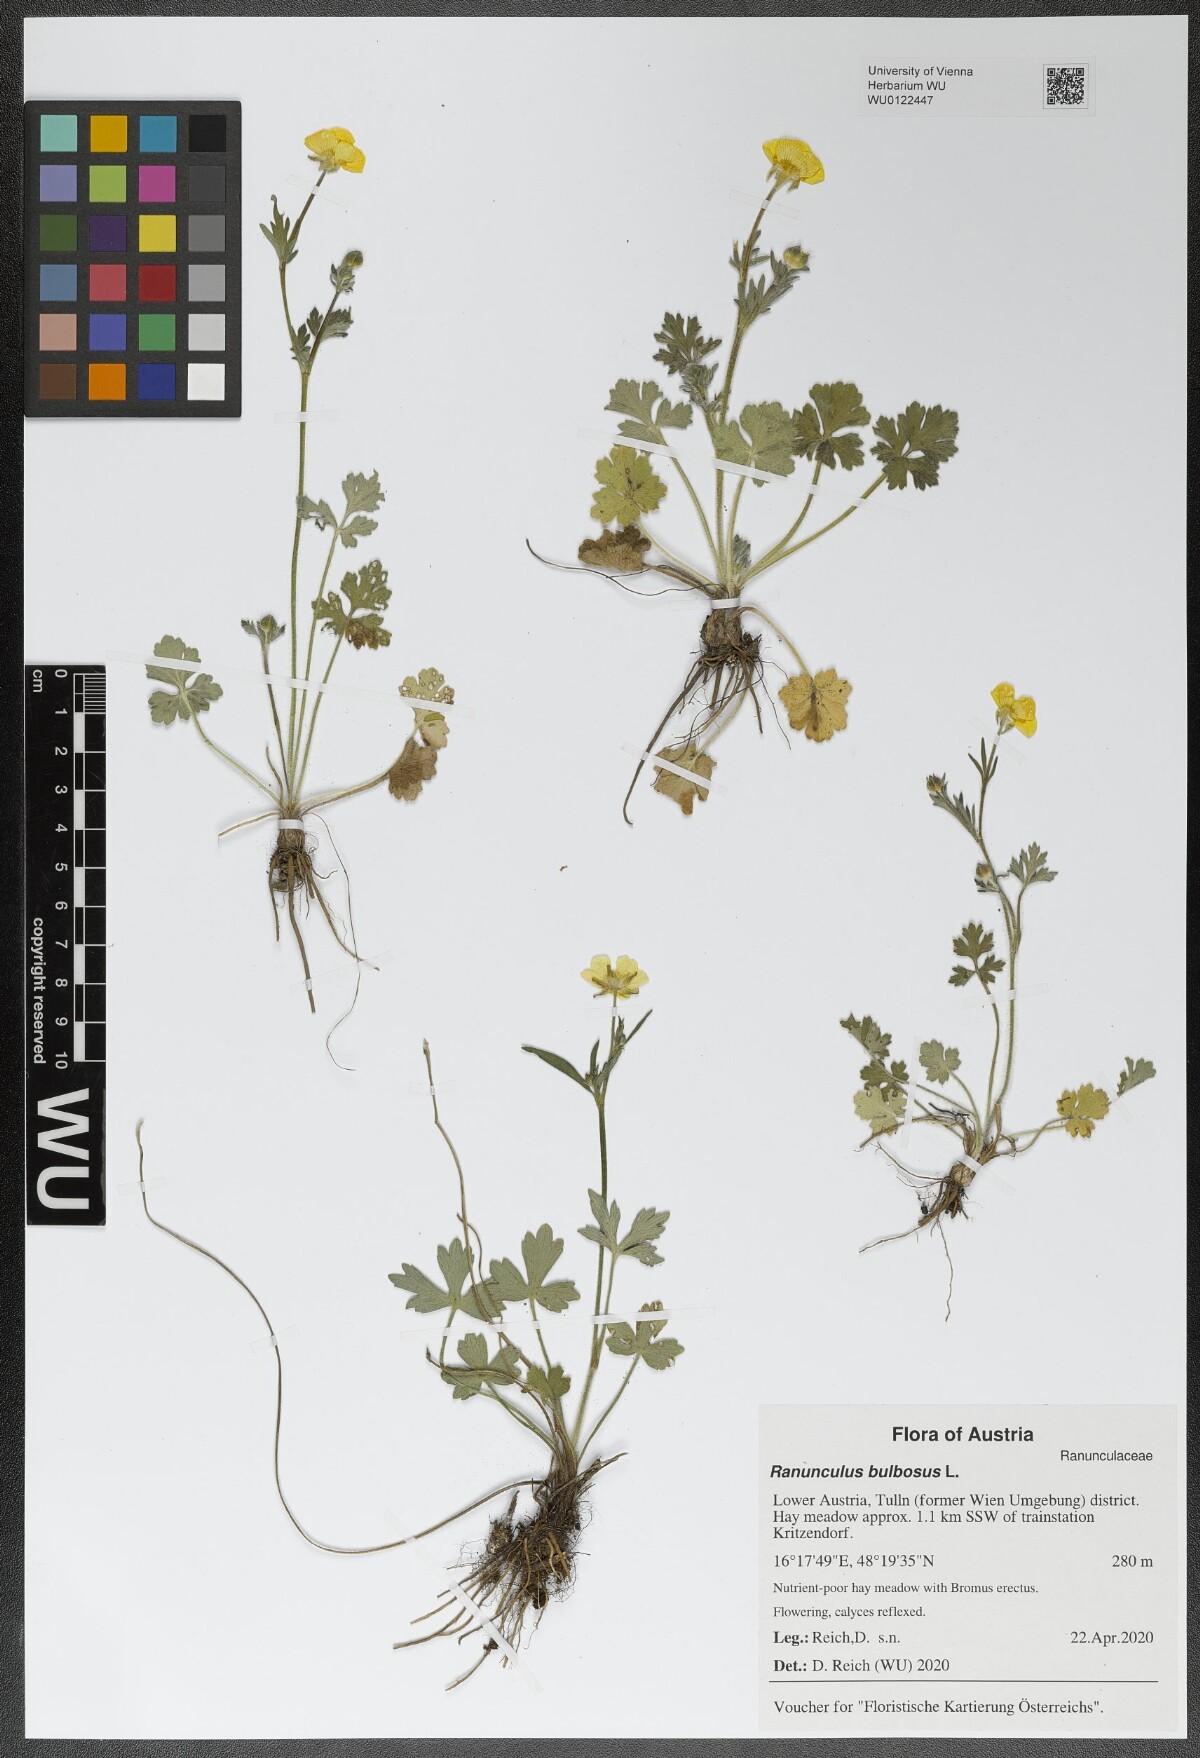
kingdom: Plantae
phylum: Tracheophyta
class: Magnoliopsida
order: Ranunculales
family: Ranunculaceae
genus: Ranunculus
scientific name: Ranunculus bulbosus
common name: Bulbous buttercup
